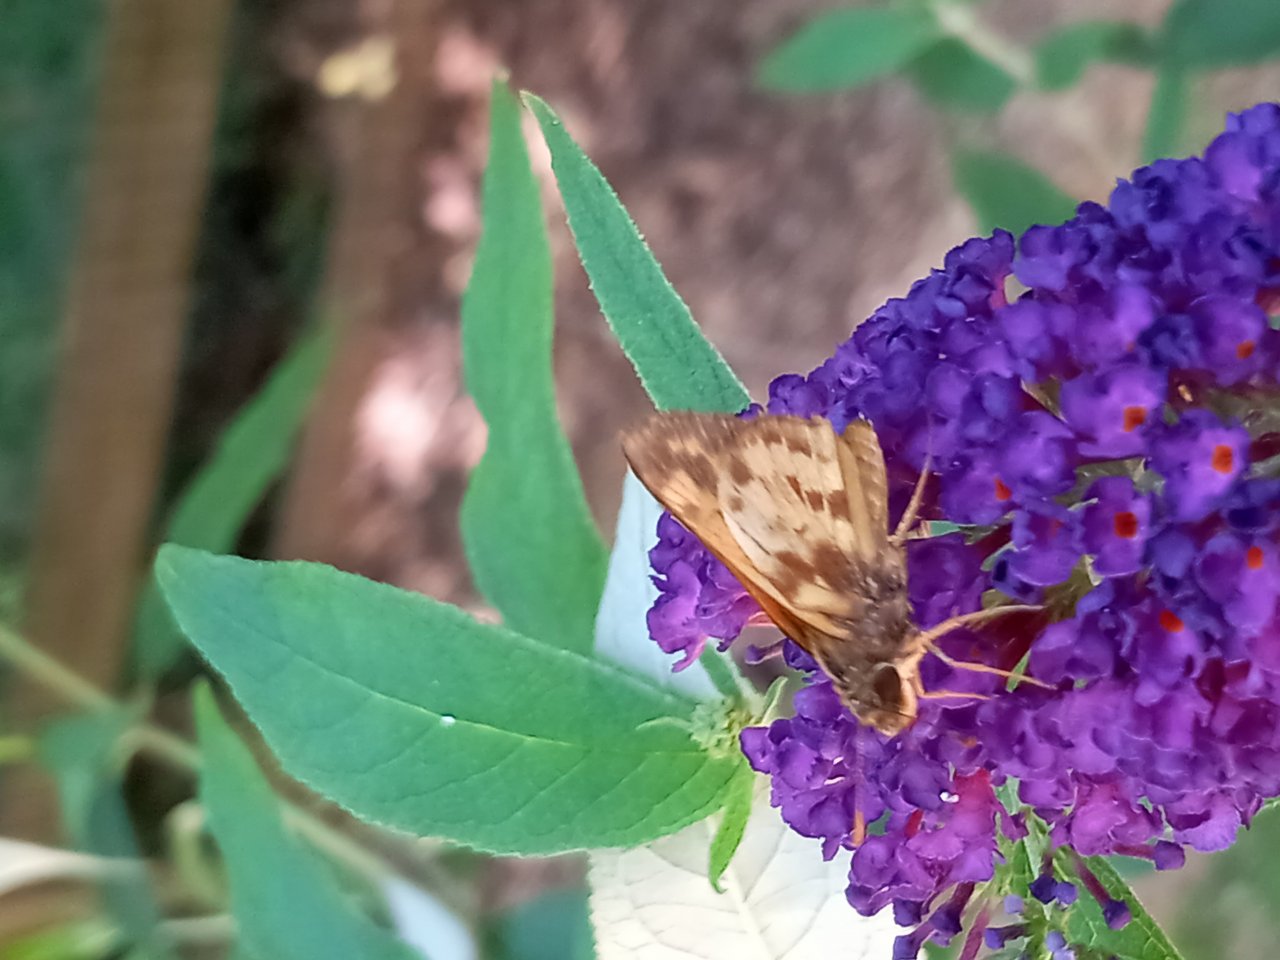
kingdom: Animalia
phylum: Arthropoda
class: Insecta
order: Lepidoptera
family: Hesperiidae
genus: Lon
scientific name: Lon zabulon
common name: Zabulon Skipper
